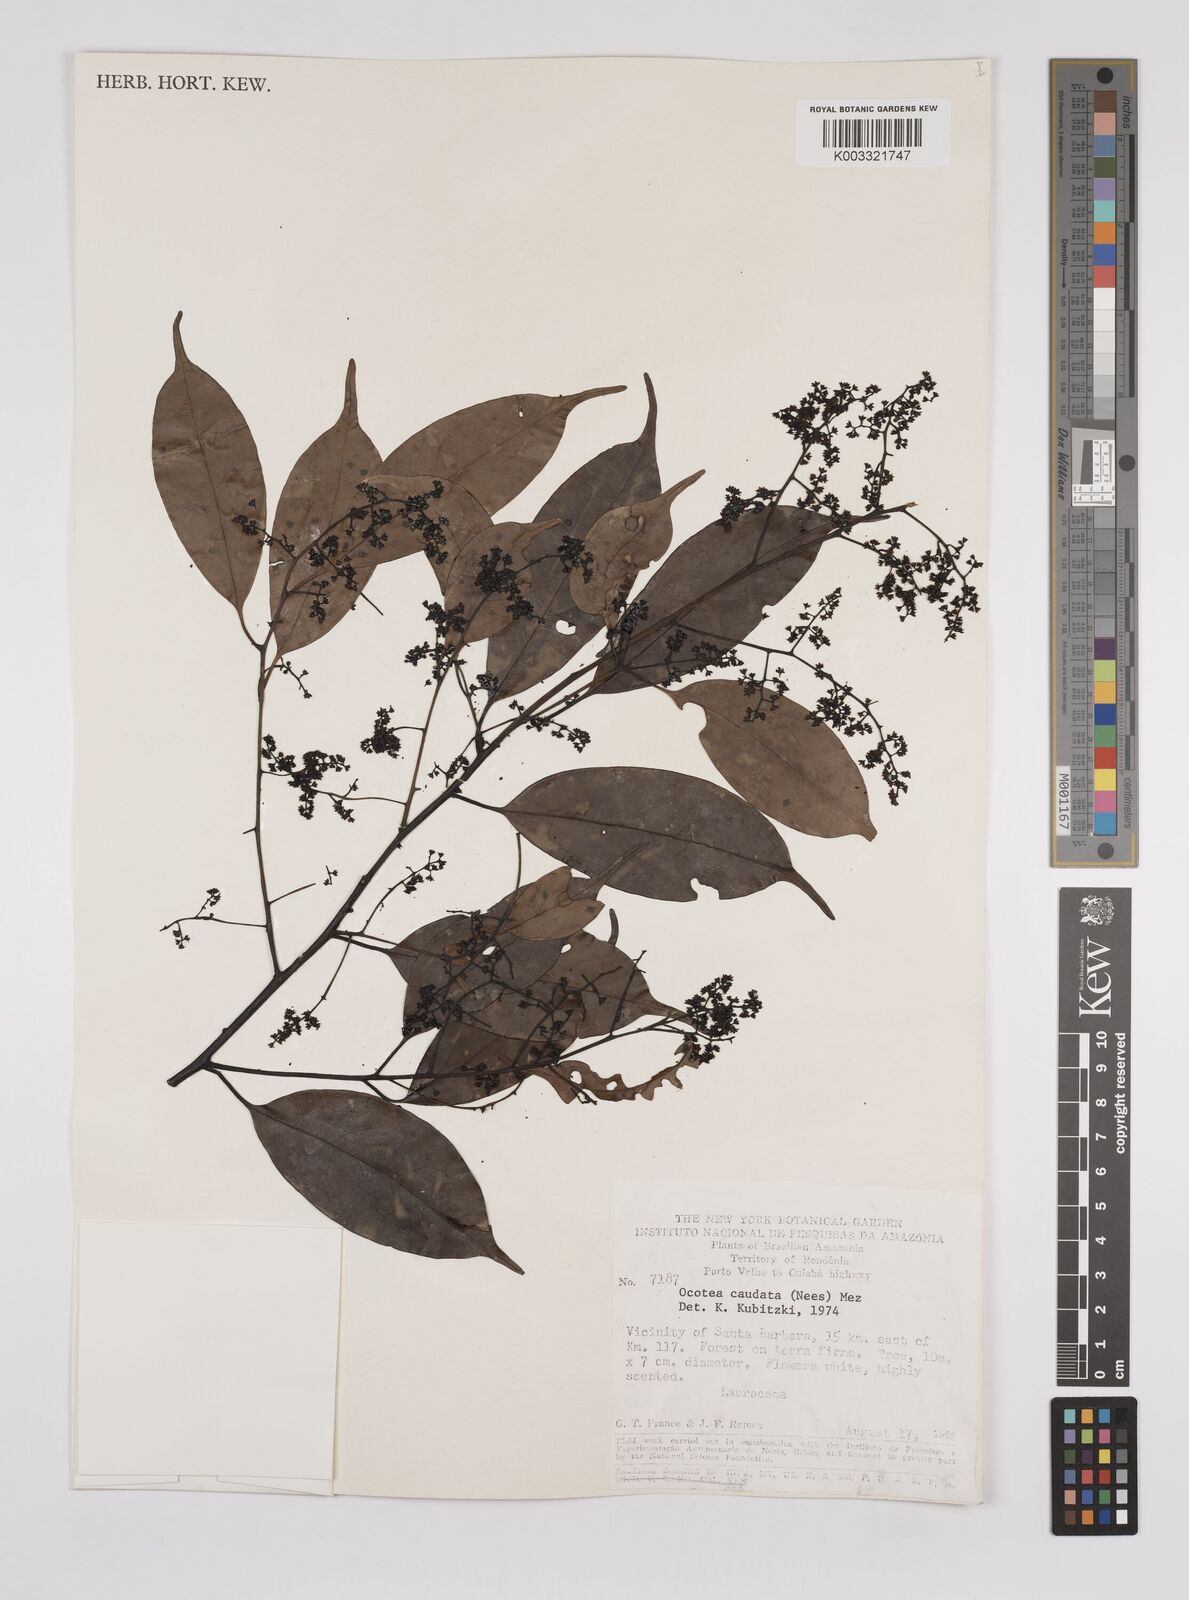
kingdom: Plantae
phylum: Tracheophyta
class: Magnoliopsida
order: Laurales
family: Lauraceae
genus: Ocotea
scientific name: Ocotea leptobotra
